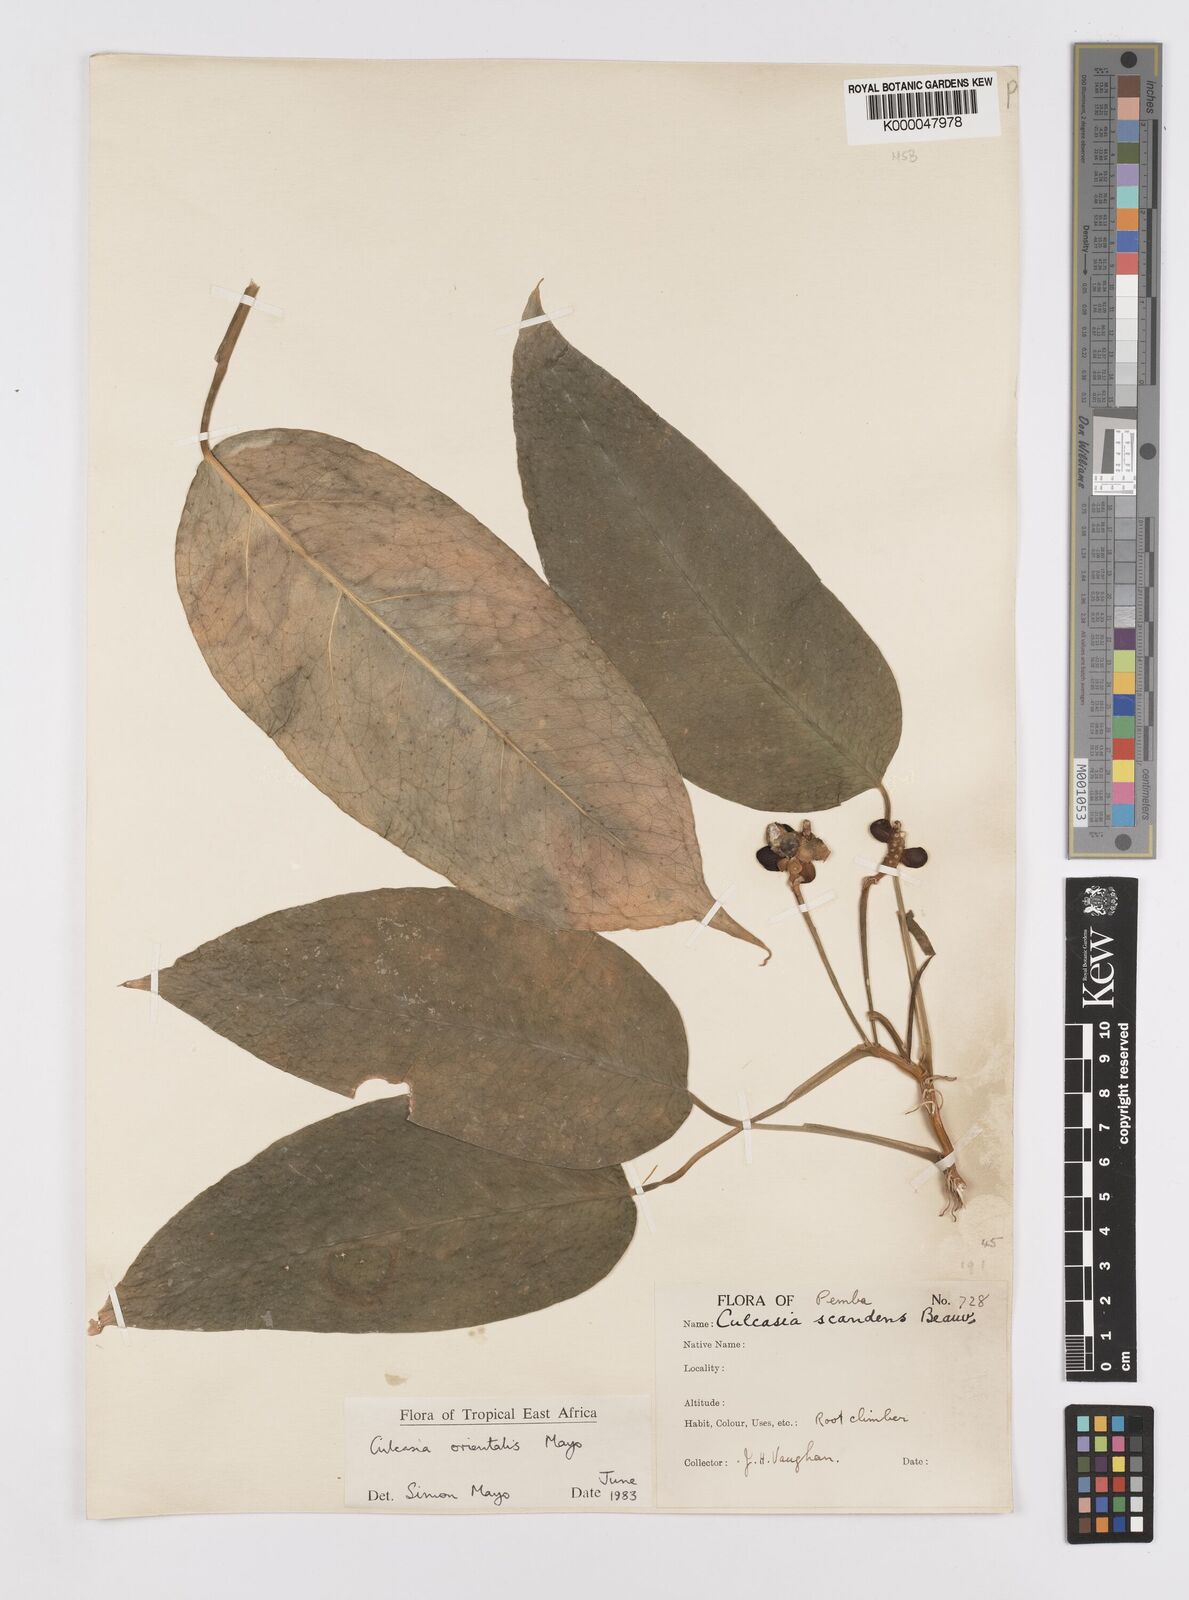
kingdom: Plantae
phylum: Tracheophyta
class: Liliopsida
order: Alismatales
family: Araceae
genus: Culcasia
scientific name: Culcasia orientalis
